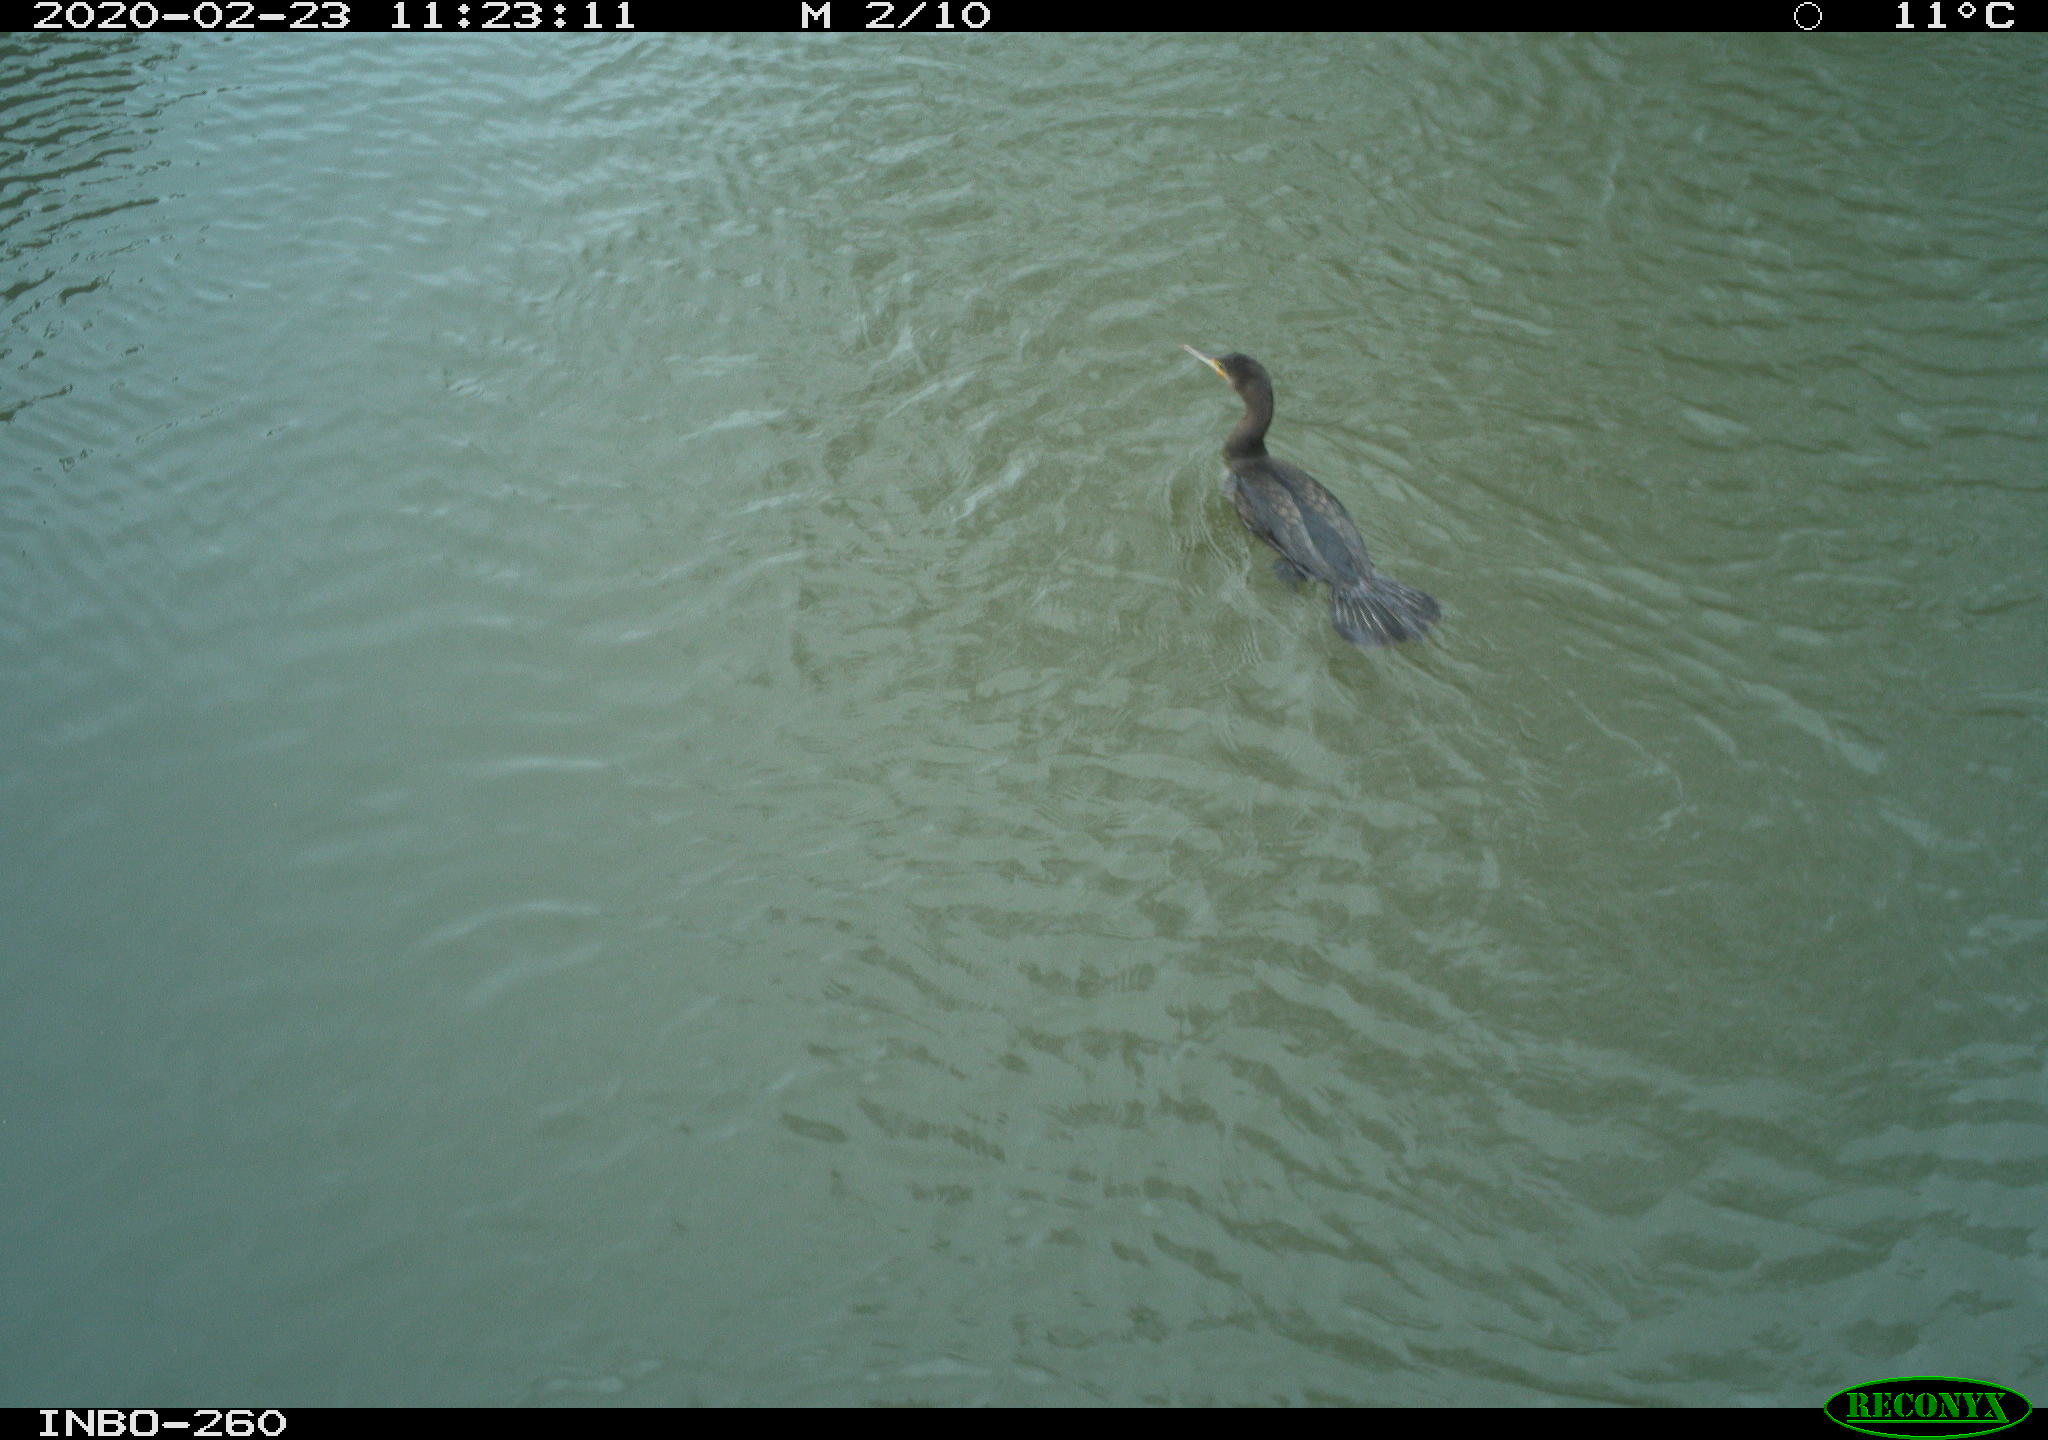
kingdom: Animalia
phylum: Chordata
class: Aves
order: Suliformes
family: Phalacrocoracidae
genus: Phalacrocorax
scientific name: Phalacrocorax carbo
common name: Great cormorant
